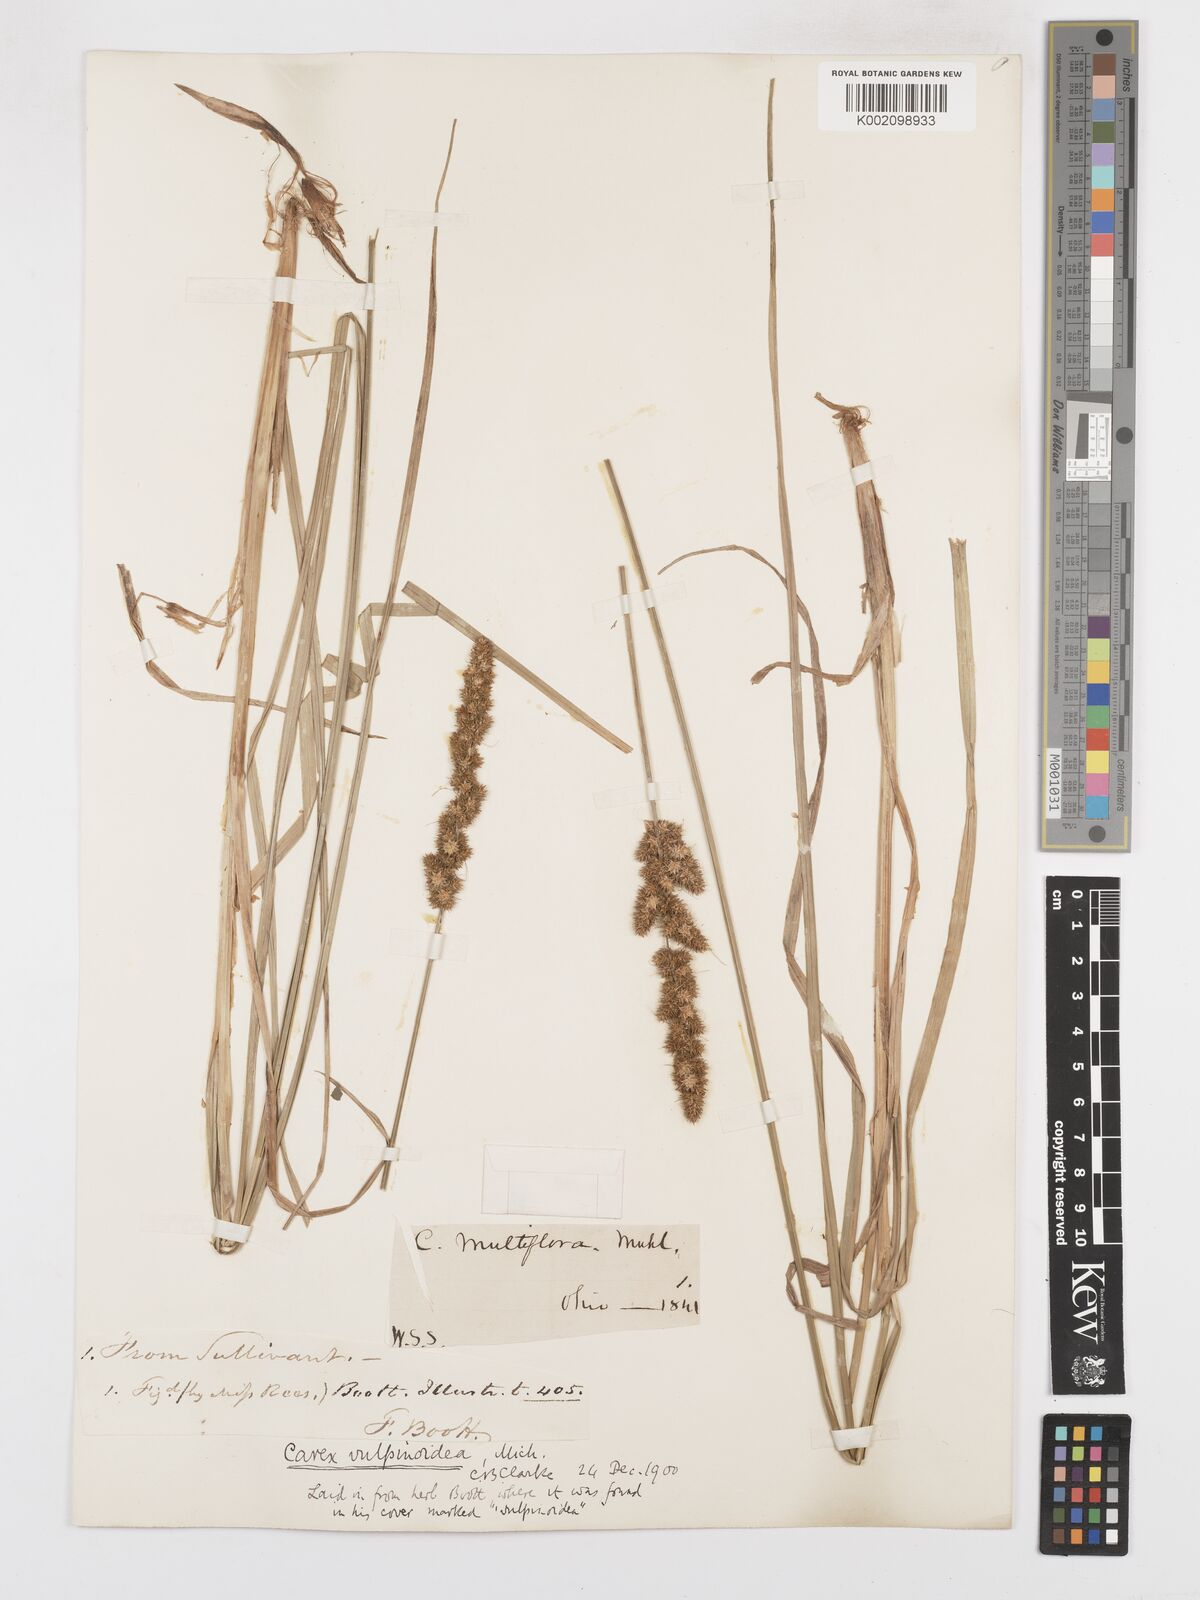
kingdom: Plantae
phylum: Tracheophyta
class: Liliopsida
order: Poales
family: Cyperaceae
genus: Carex
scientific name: Carex vulpinoidea
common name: American fox-sedge
